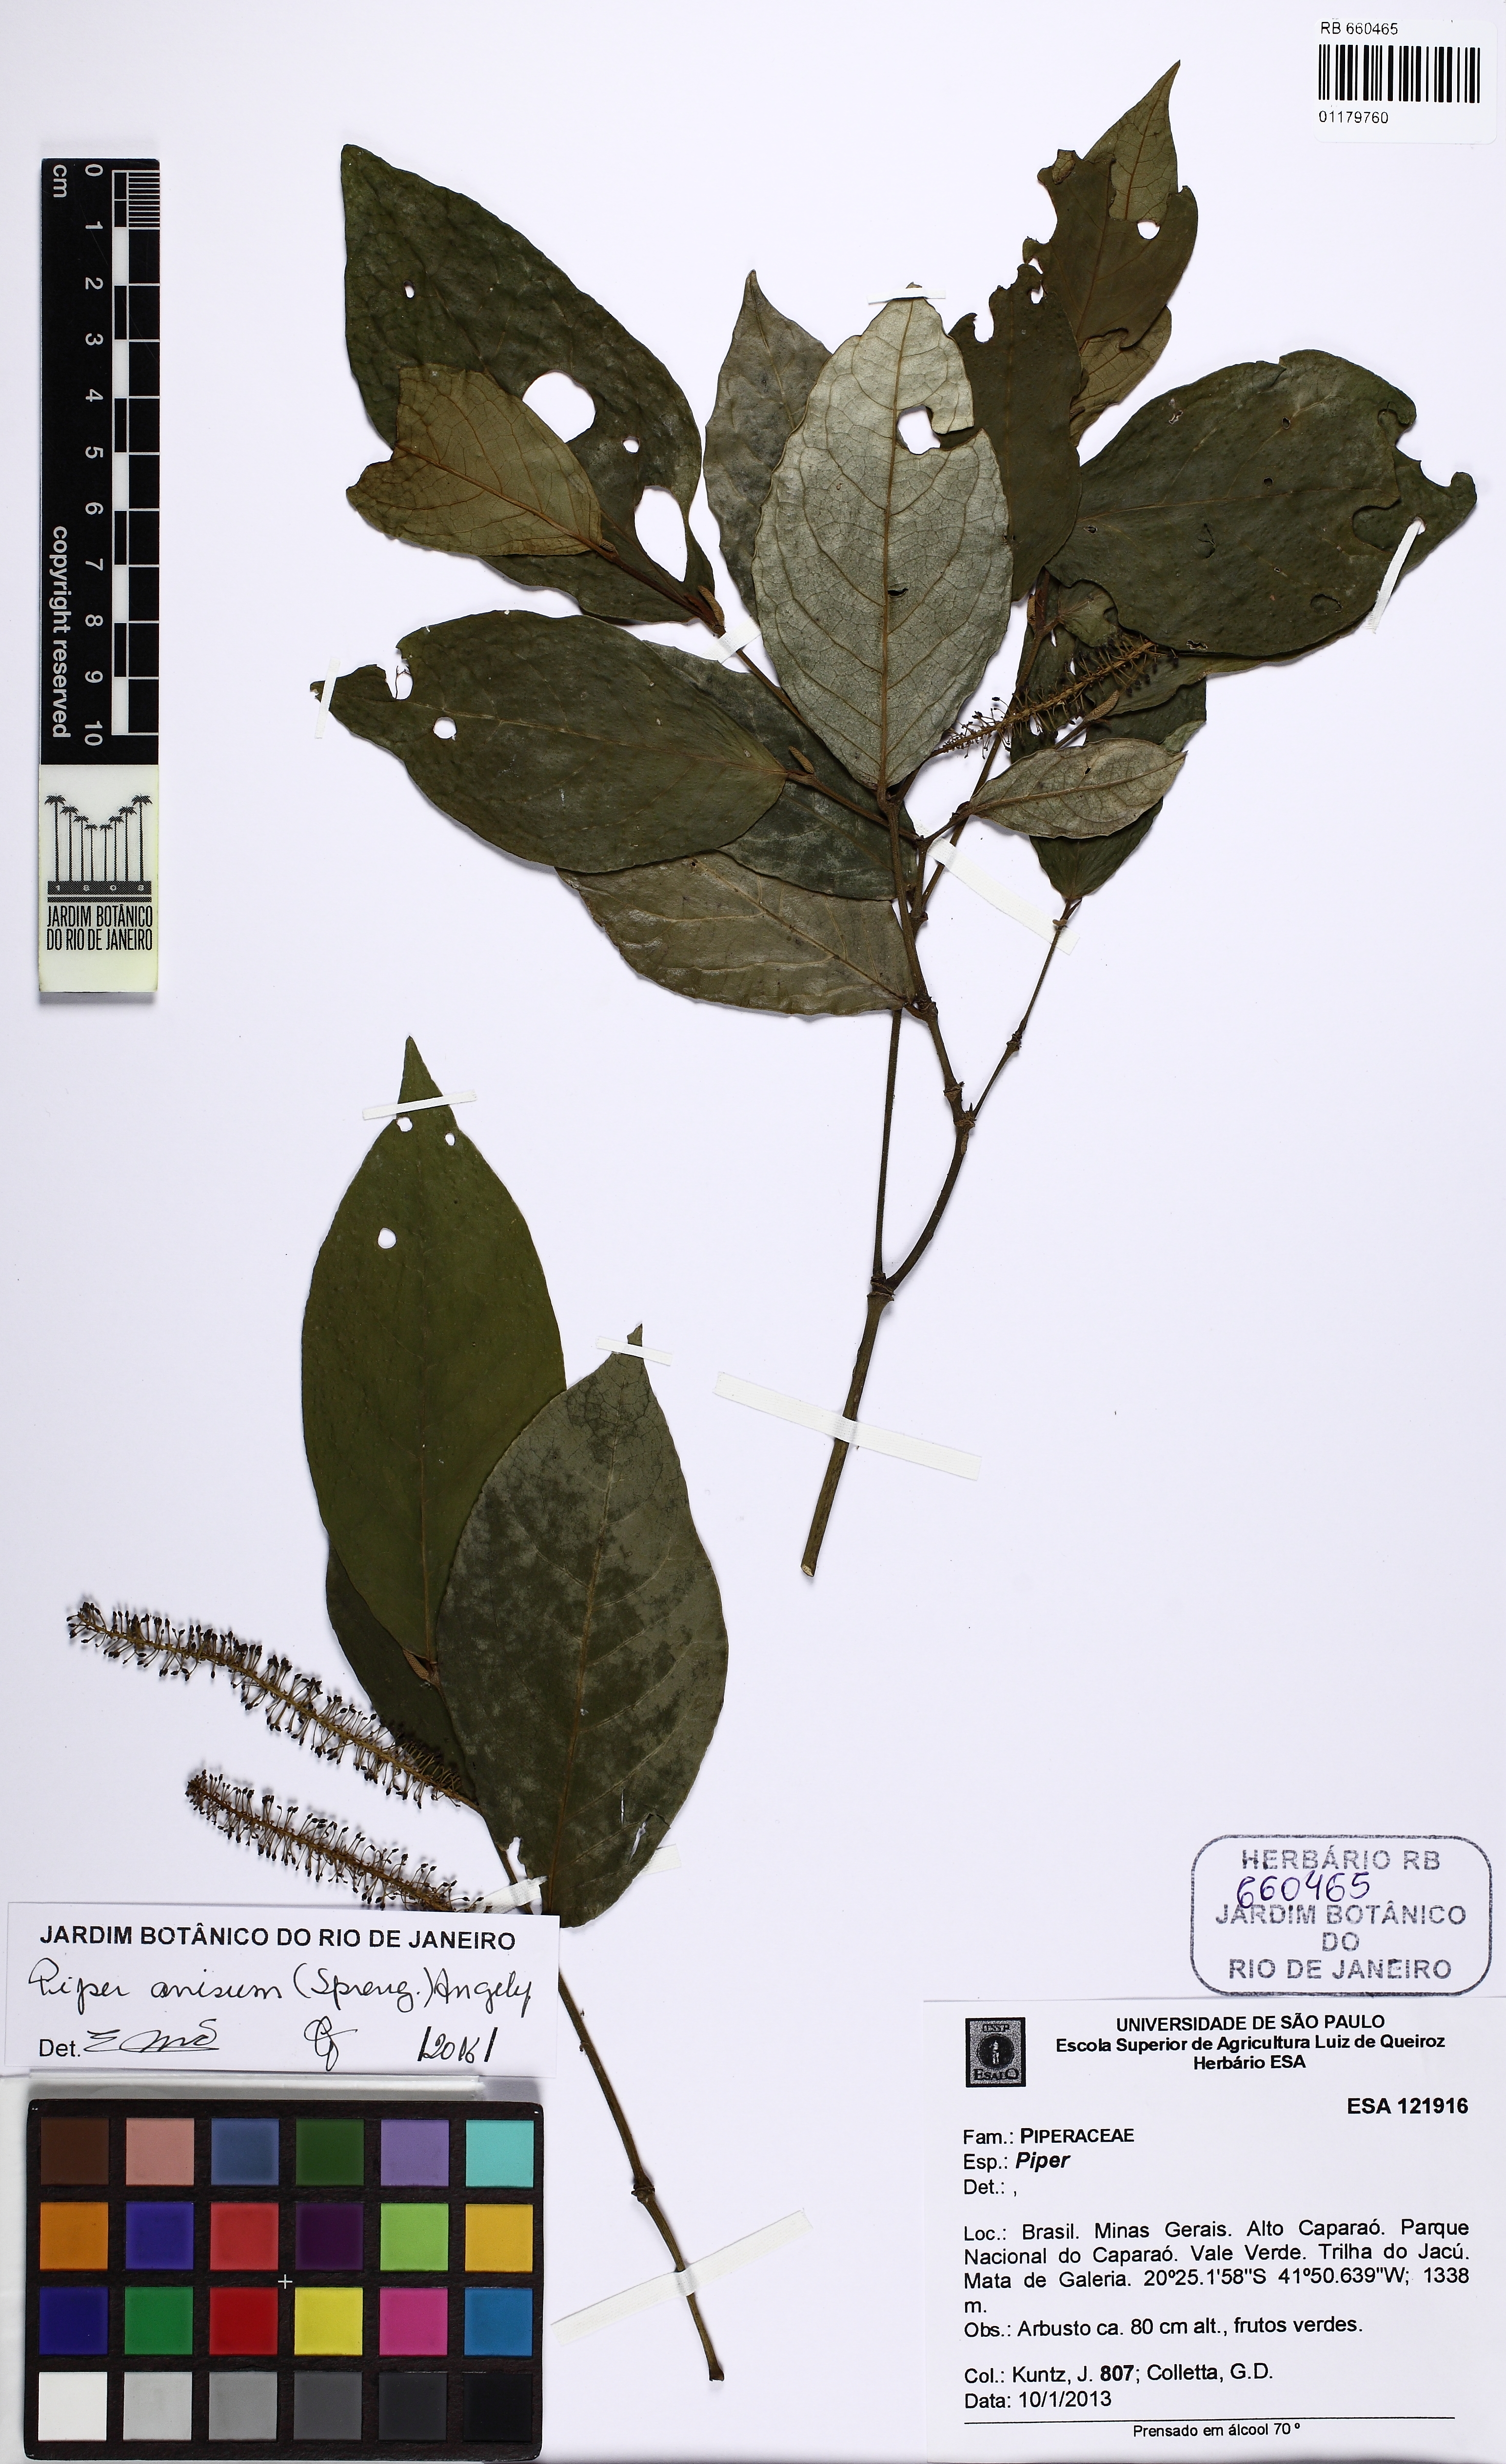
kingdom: Plantae
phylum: Tracheophyta
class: Magnoliopsida
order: Piperales
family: Piperaceae
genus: Piper
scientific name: Piper anisum
